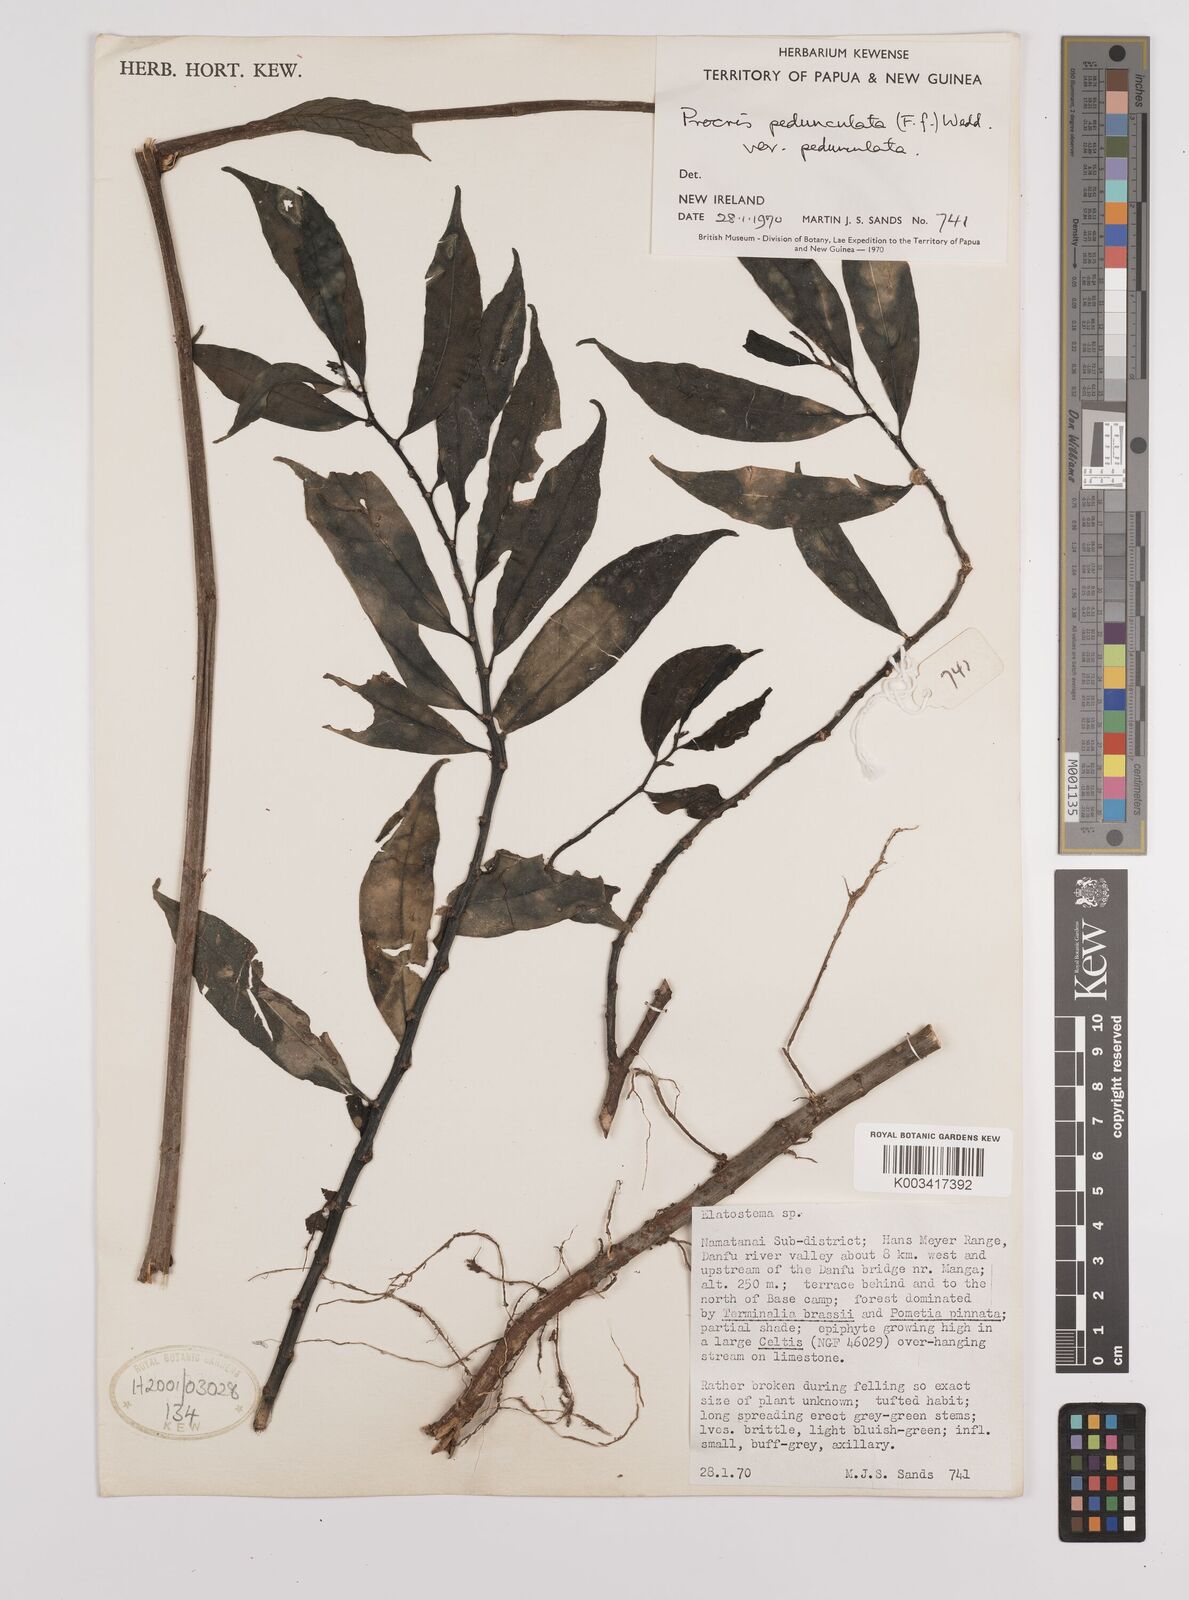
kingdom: Plantae
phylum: Tracheophyta
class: Magnoliopsida
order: Rosales
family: Urticaceae
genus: Procris
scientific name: Procris pedunculata
